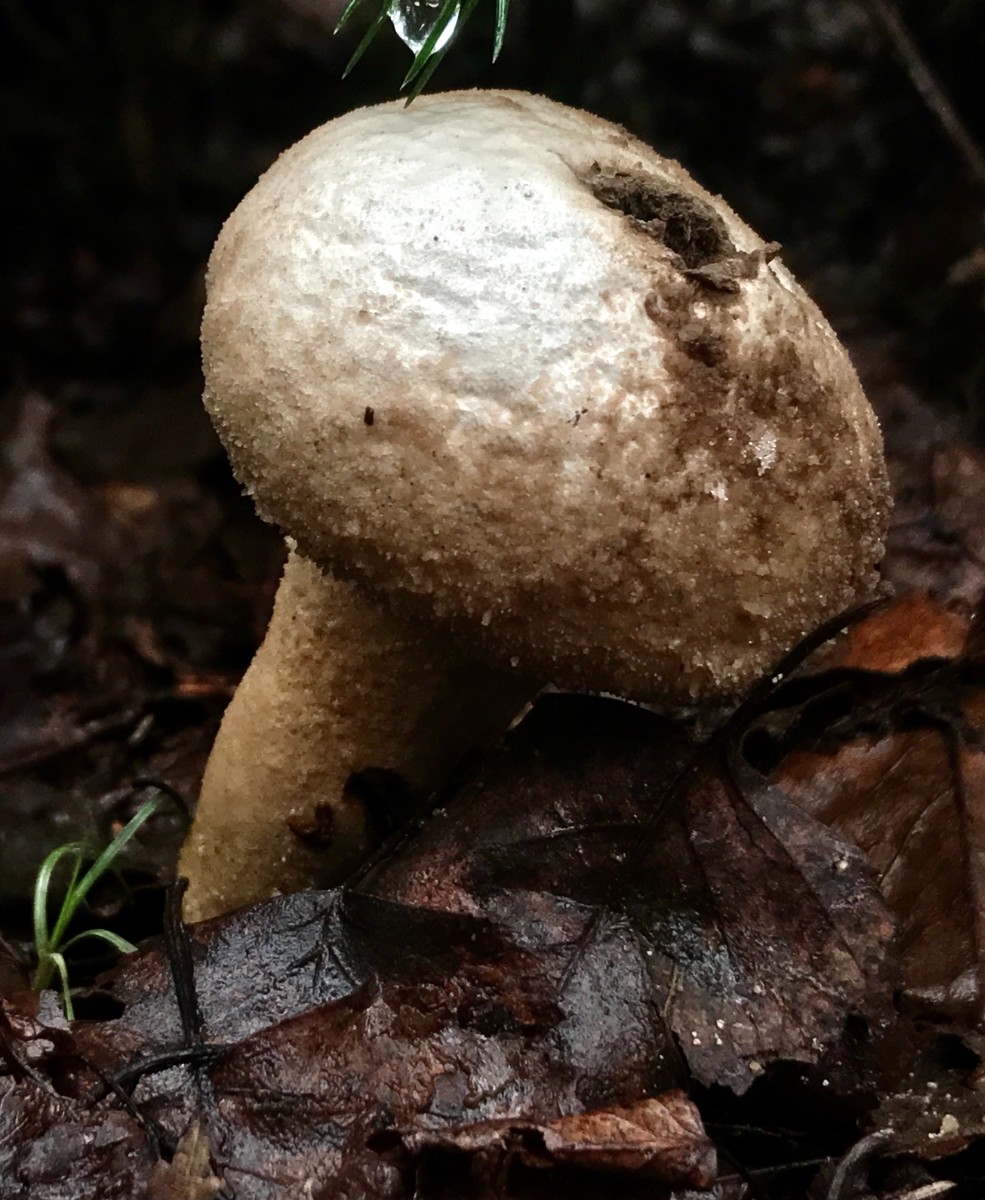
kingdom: Fungi
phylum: Basidiomycota
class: Agaricomycetes
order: Agaricales
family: Lycoperdaceae
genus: Lycoperdon
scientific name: Lycoperdon perlatum
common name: krystal-støvbold
